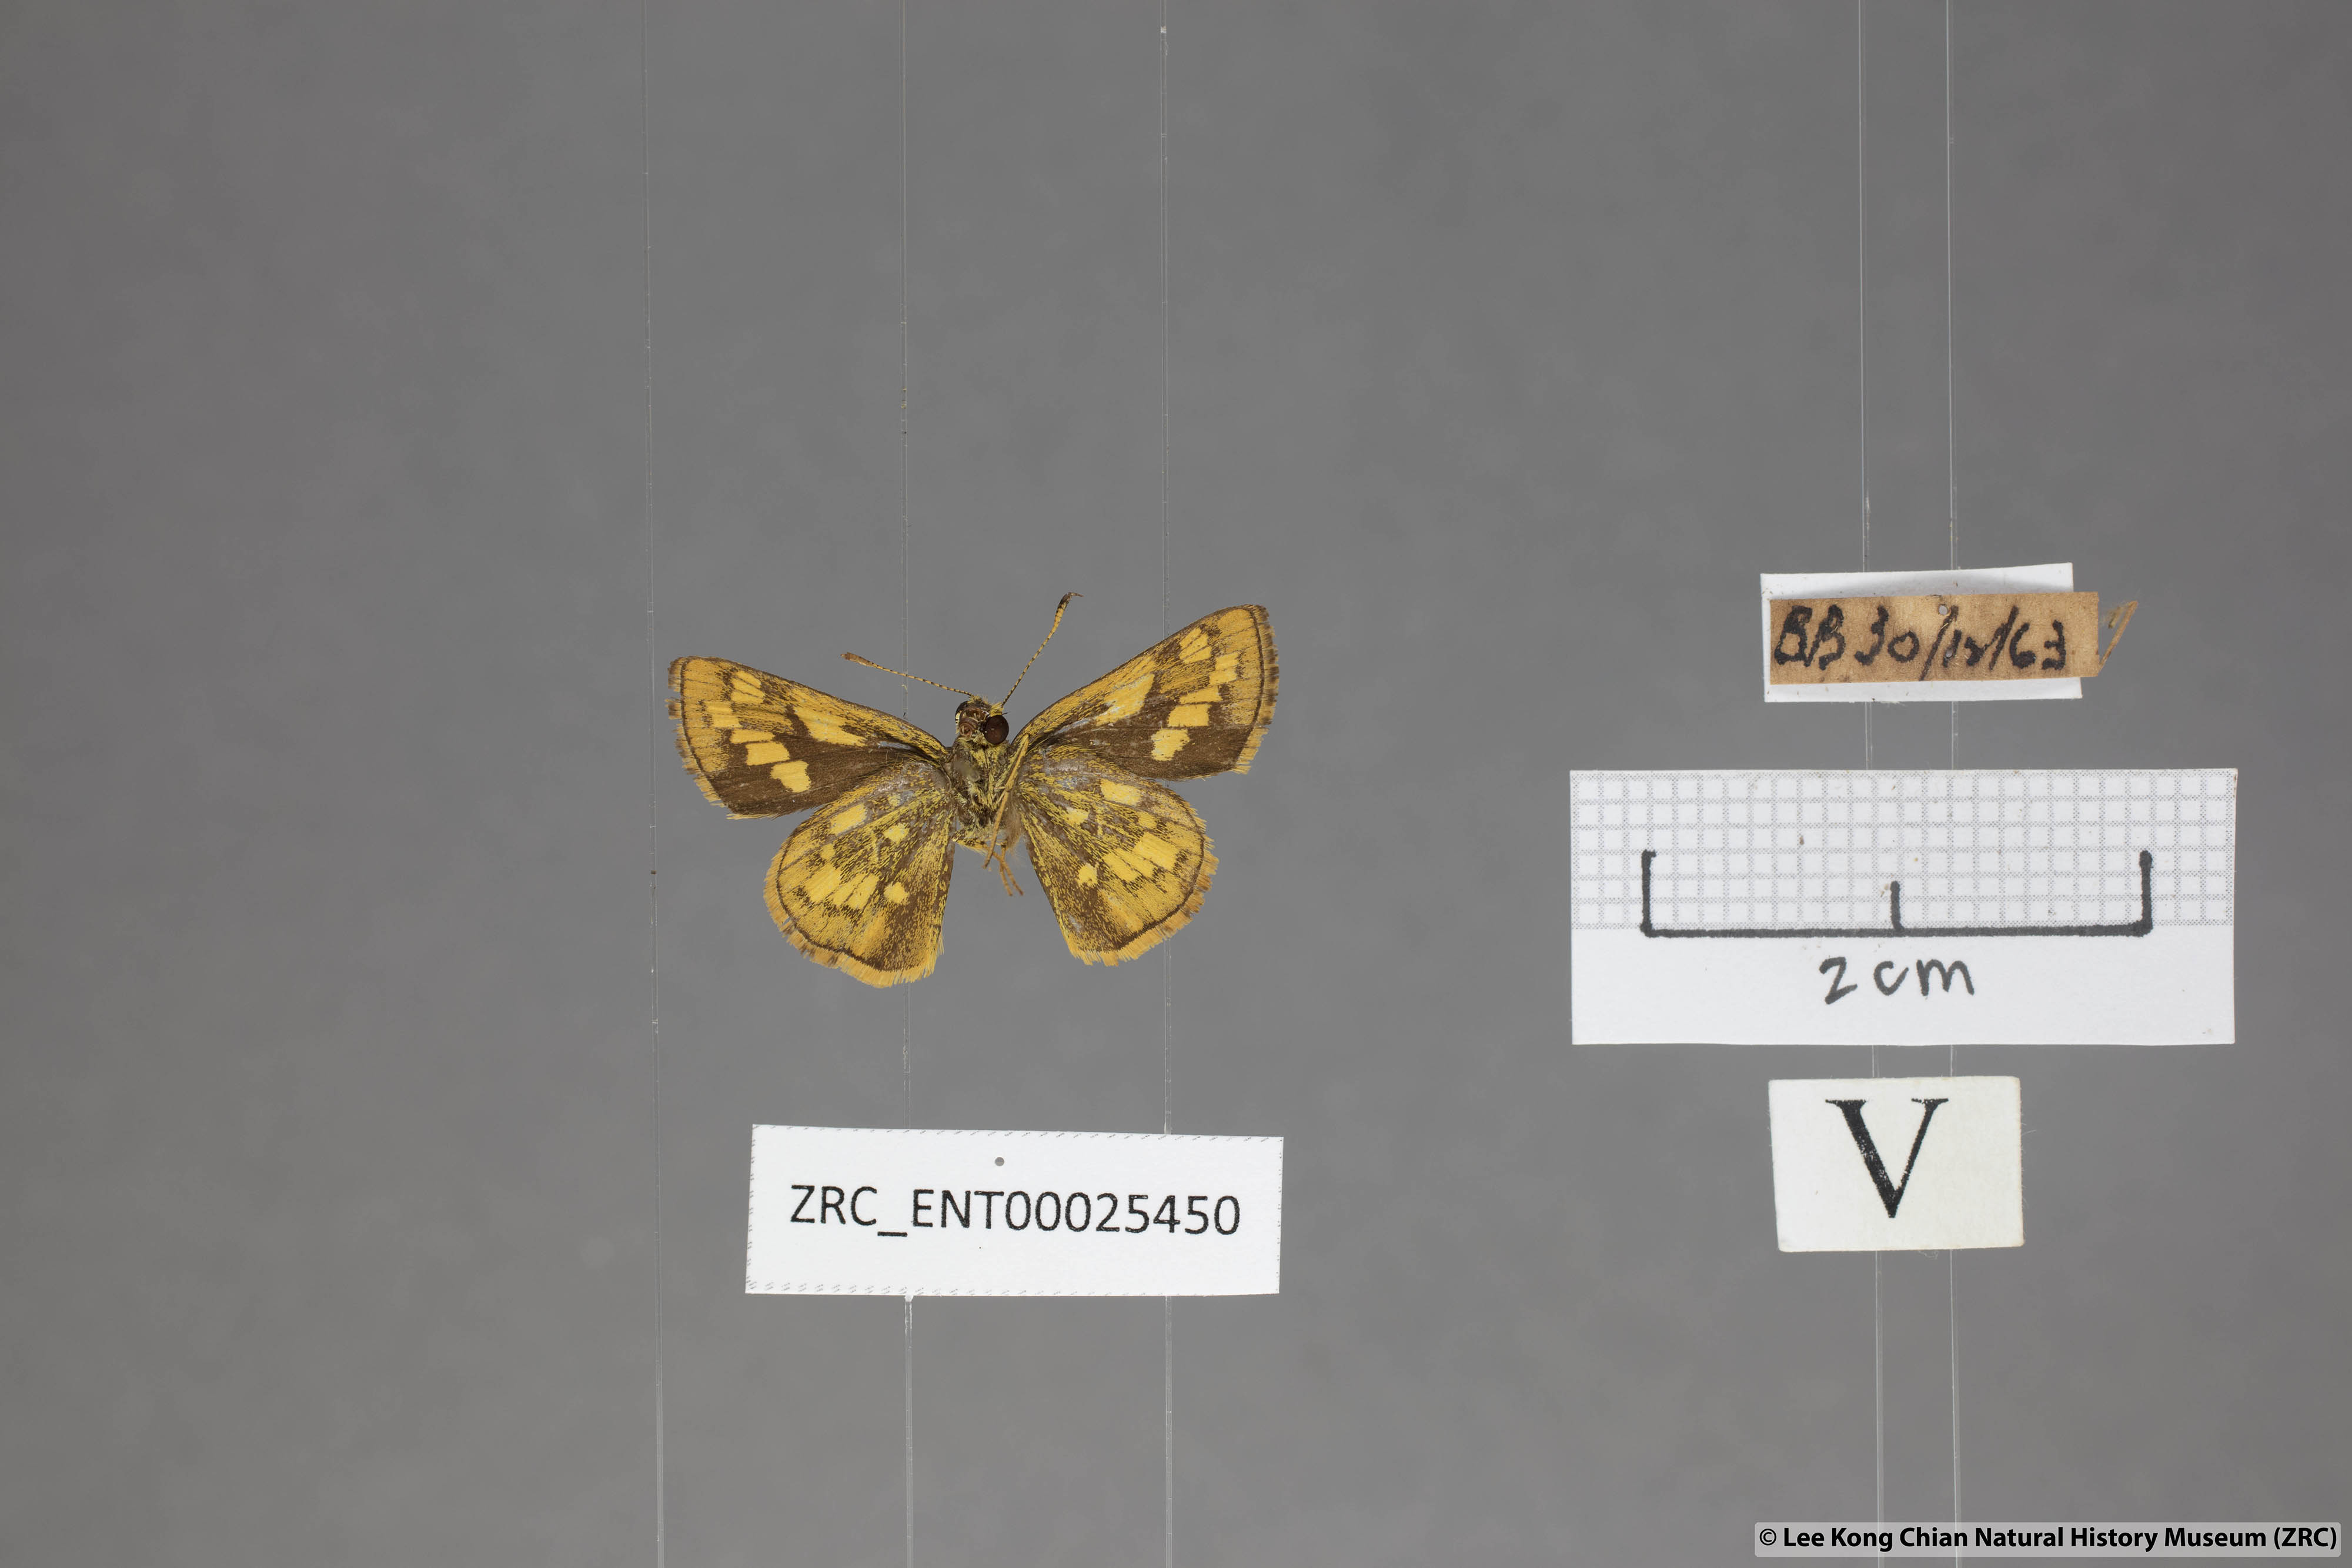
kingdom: Animalia
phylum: Arthropoda
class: Insecta
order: Lepidoptera
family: Hesperiidae
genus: Potanthus
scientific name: Potanthus omaha
